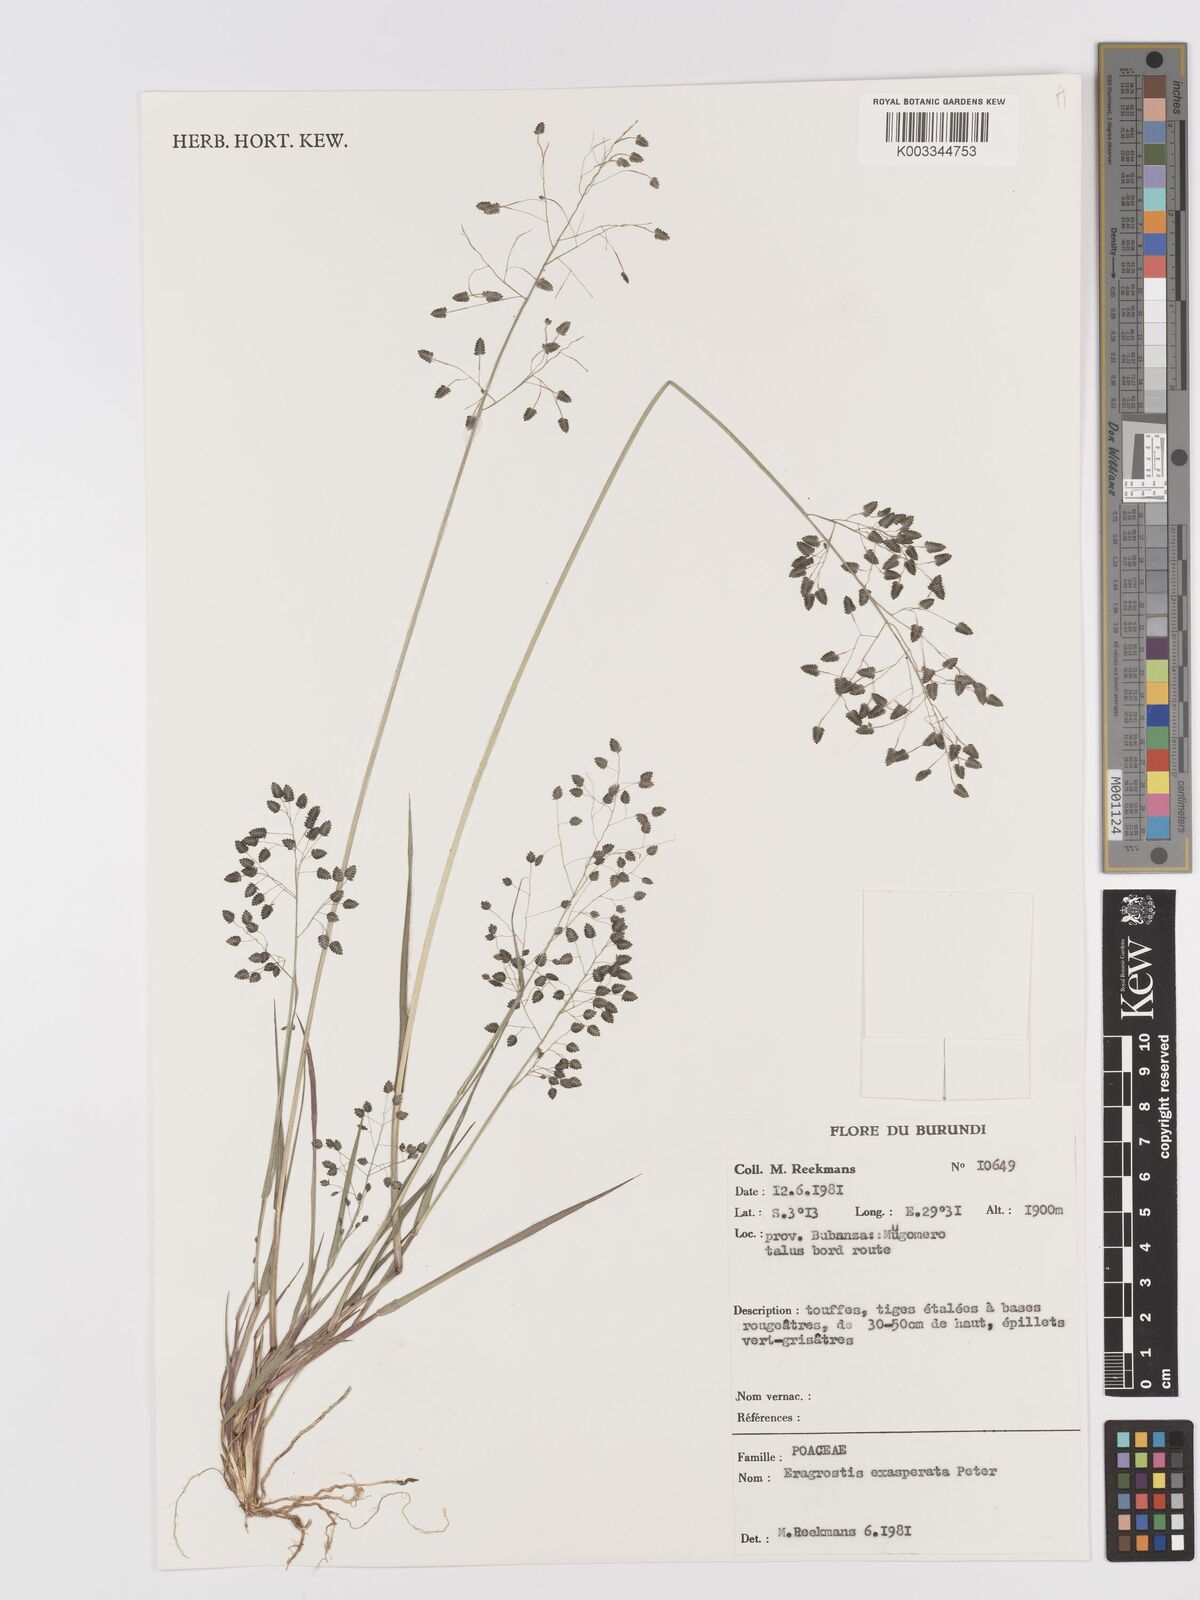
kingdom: Plantae
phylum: Tracheophyta
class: Liliopsida
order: Poales
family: Poaceae
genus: Eragrostis
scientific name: Eragrostis exasperata
